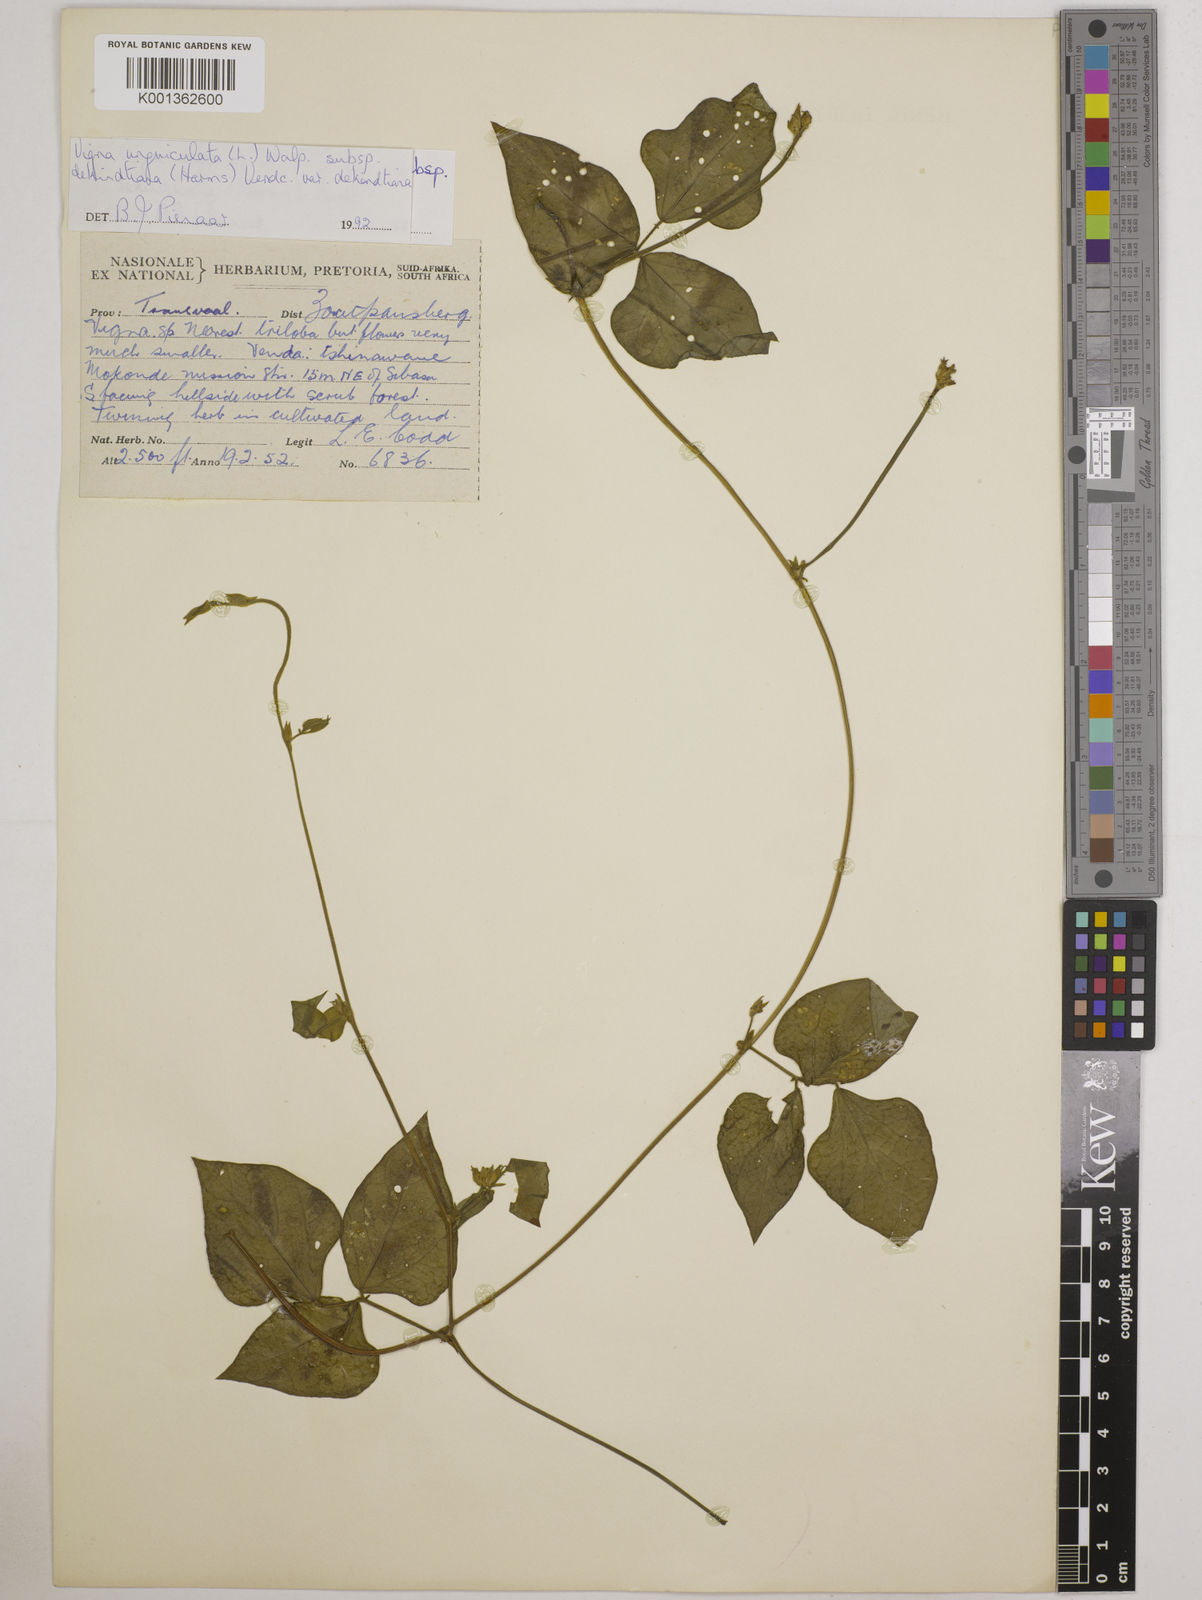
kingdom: Plantae
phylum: Tracheophyta
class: Magnoliopsida
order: Fabales
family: Fabaceae
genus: Vigna
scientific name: Vigna
